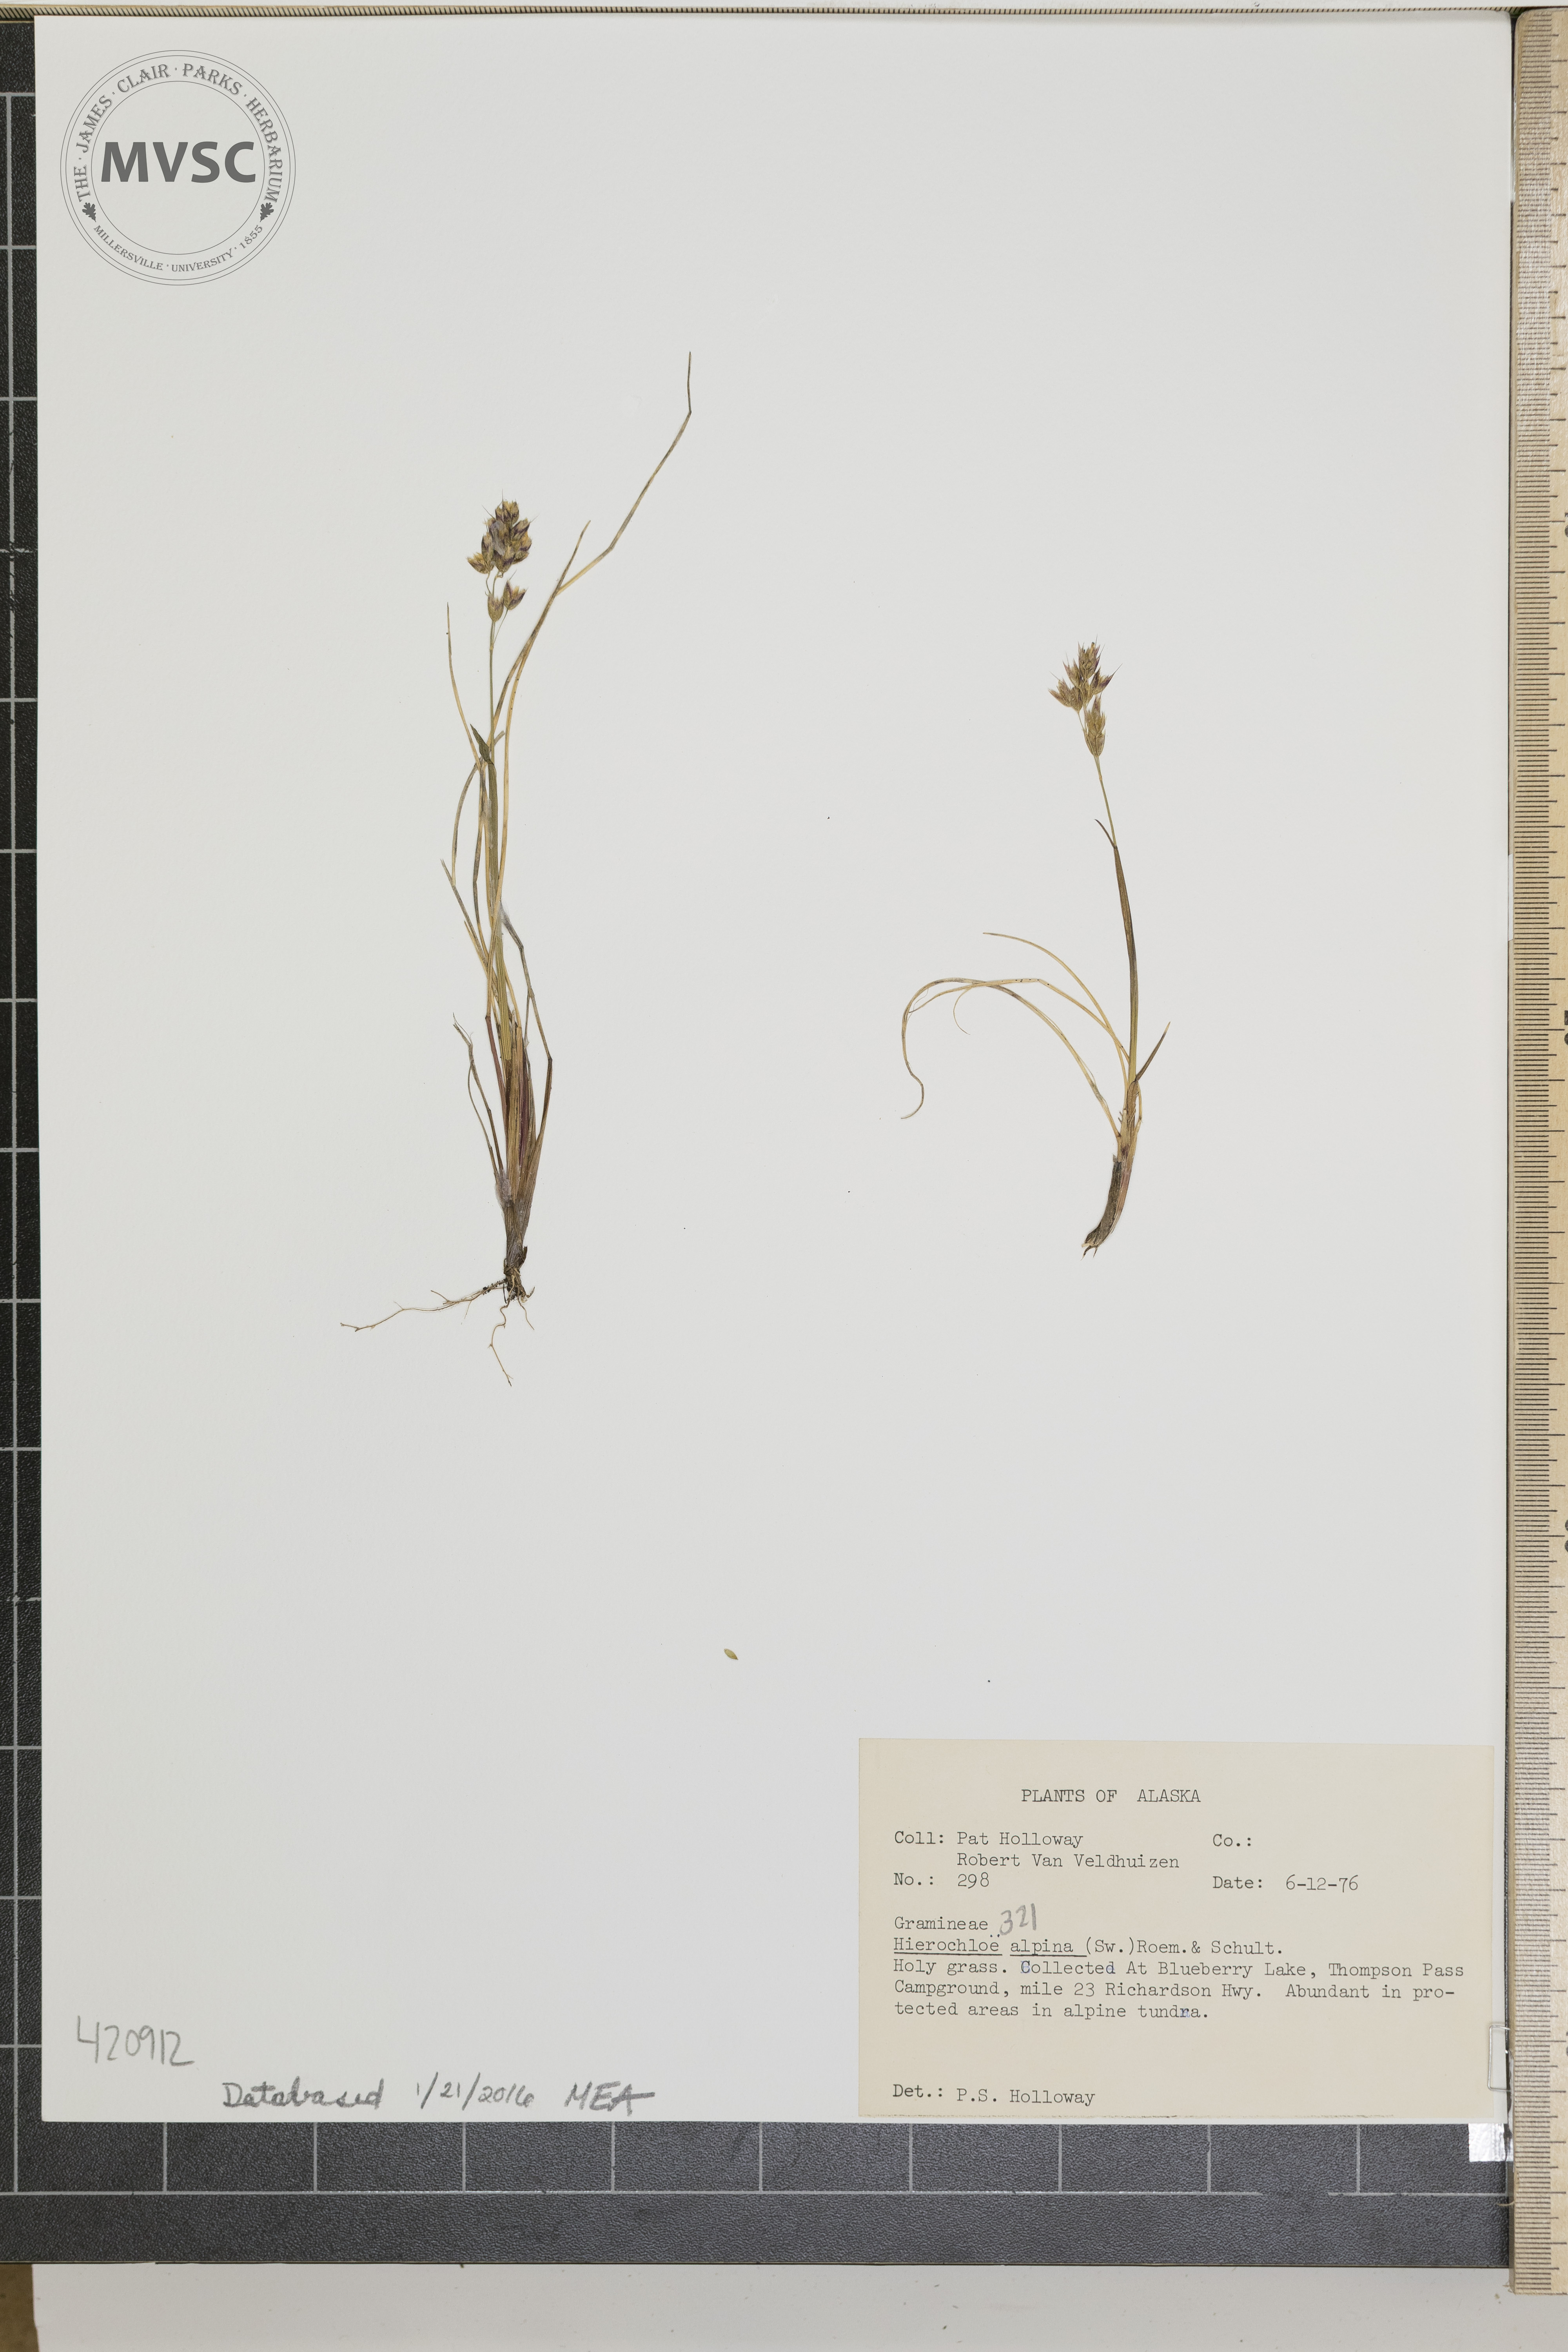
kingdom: Plantae
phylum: Tracheophyta
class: Liliopsida
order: Poales
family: Poaceae
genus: Anthoxanthum
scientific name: Anthoxanthum monticola
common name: Alpine Sweetgrass
